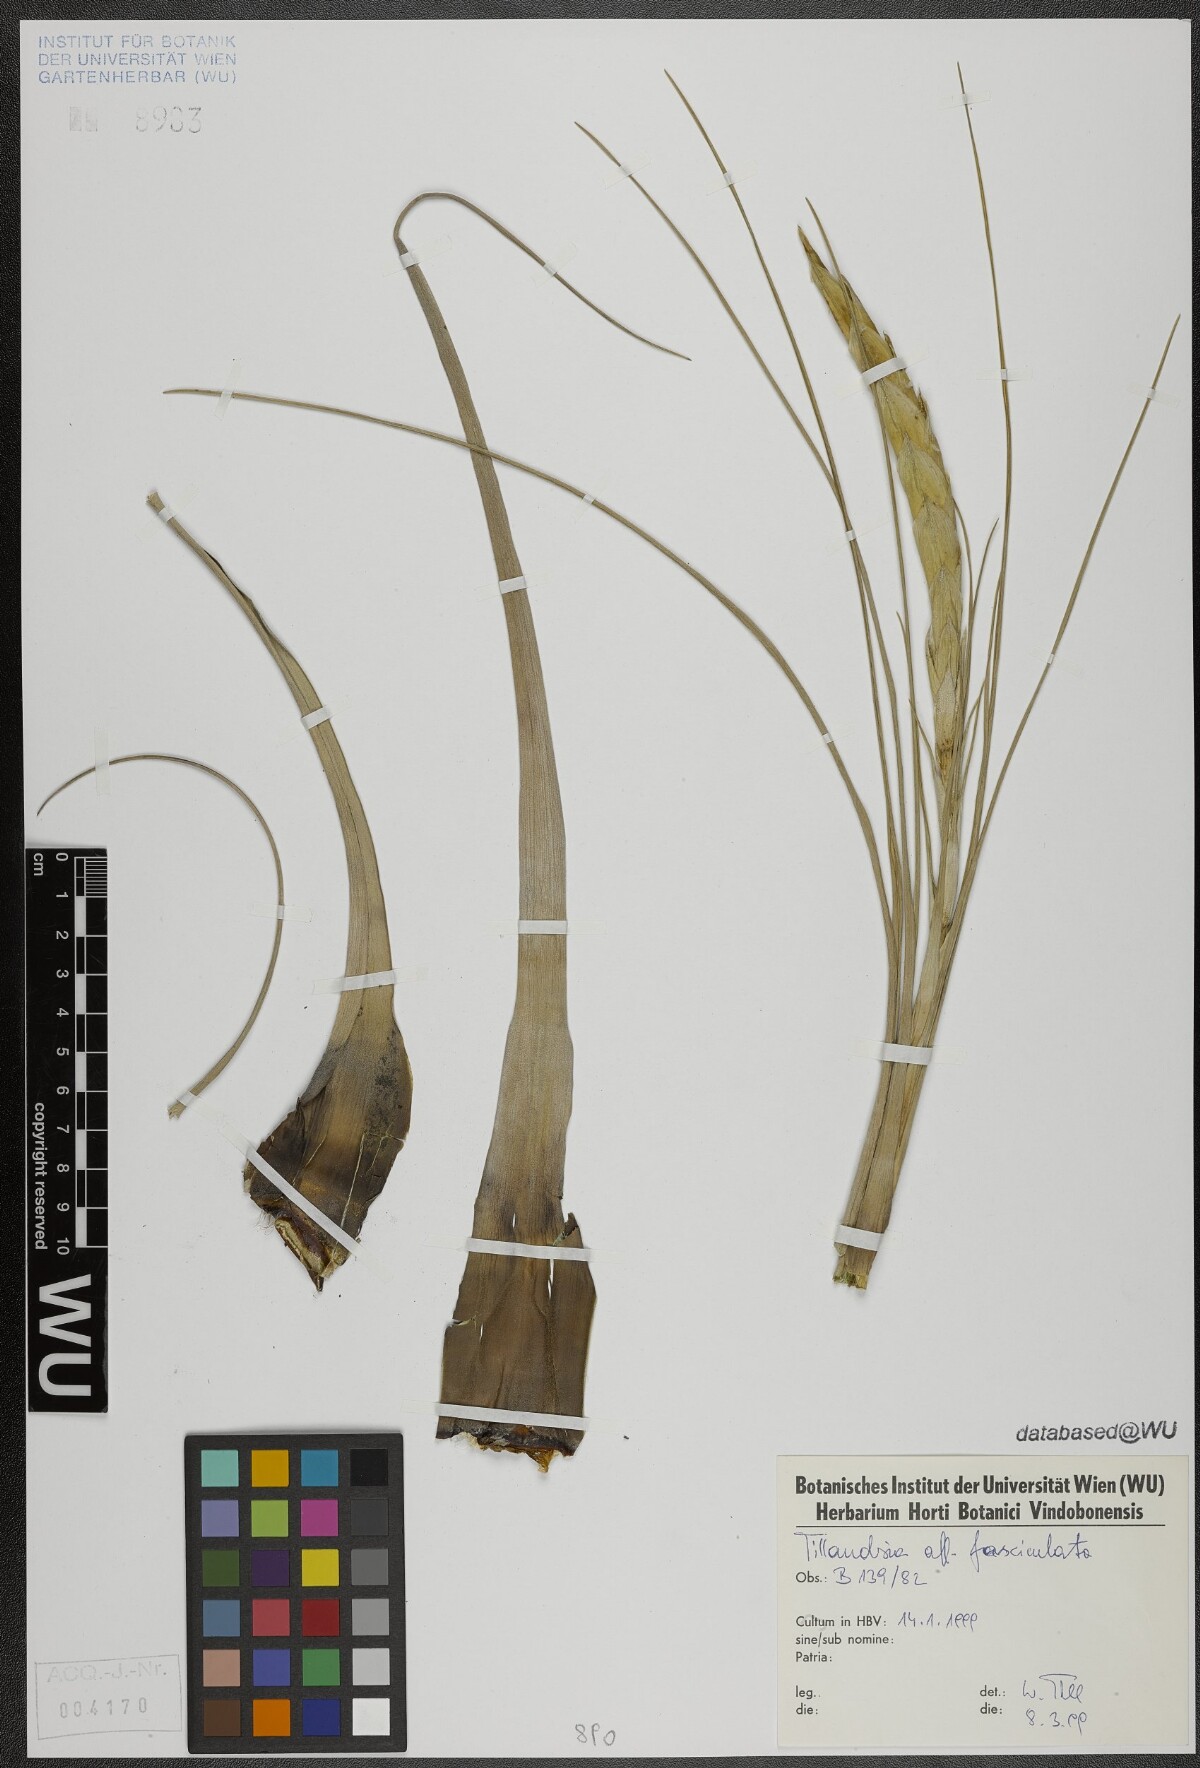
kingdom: Plantae
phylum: Tracheophyta
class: Liliopsida
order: Poales
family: Bromeliaceae
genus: Tillandsia
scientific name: Tillandsia fasciculata
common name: Giant airplant
